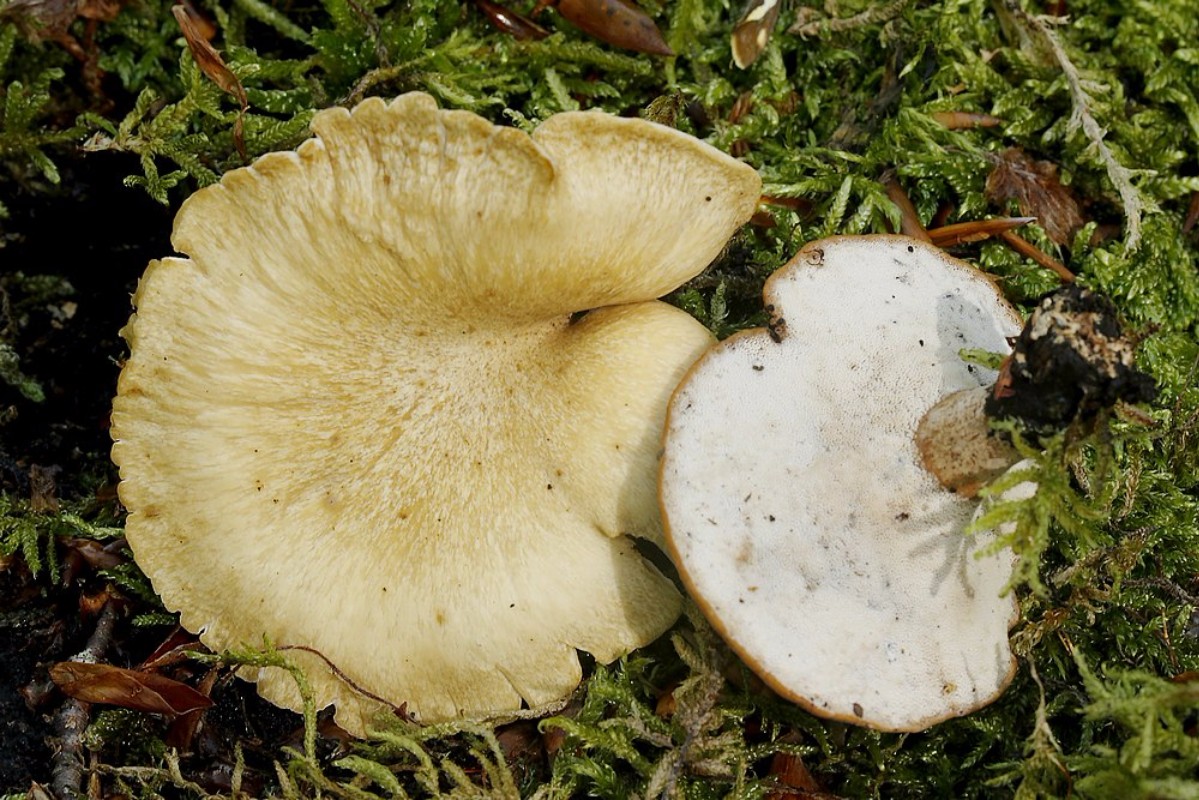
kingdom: Fungi
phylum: Basidiomycota
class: Agaricomycetes
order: Polyporales
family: Polyporaceae
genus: Cerioporus
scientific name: Cerioporus varius
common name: foranderlig stilkporesvamp
